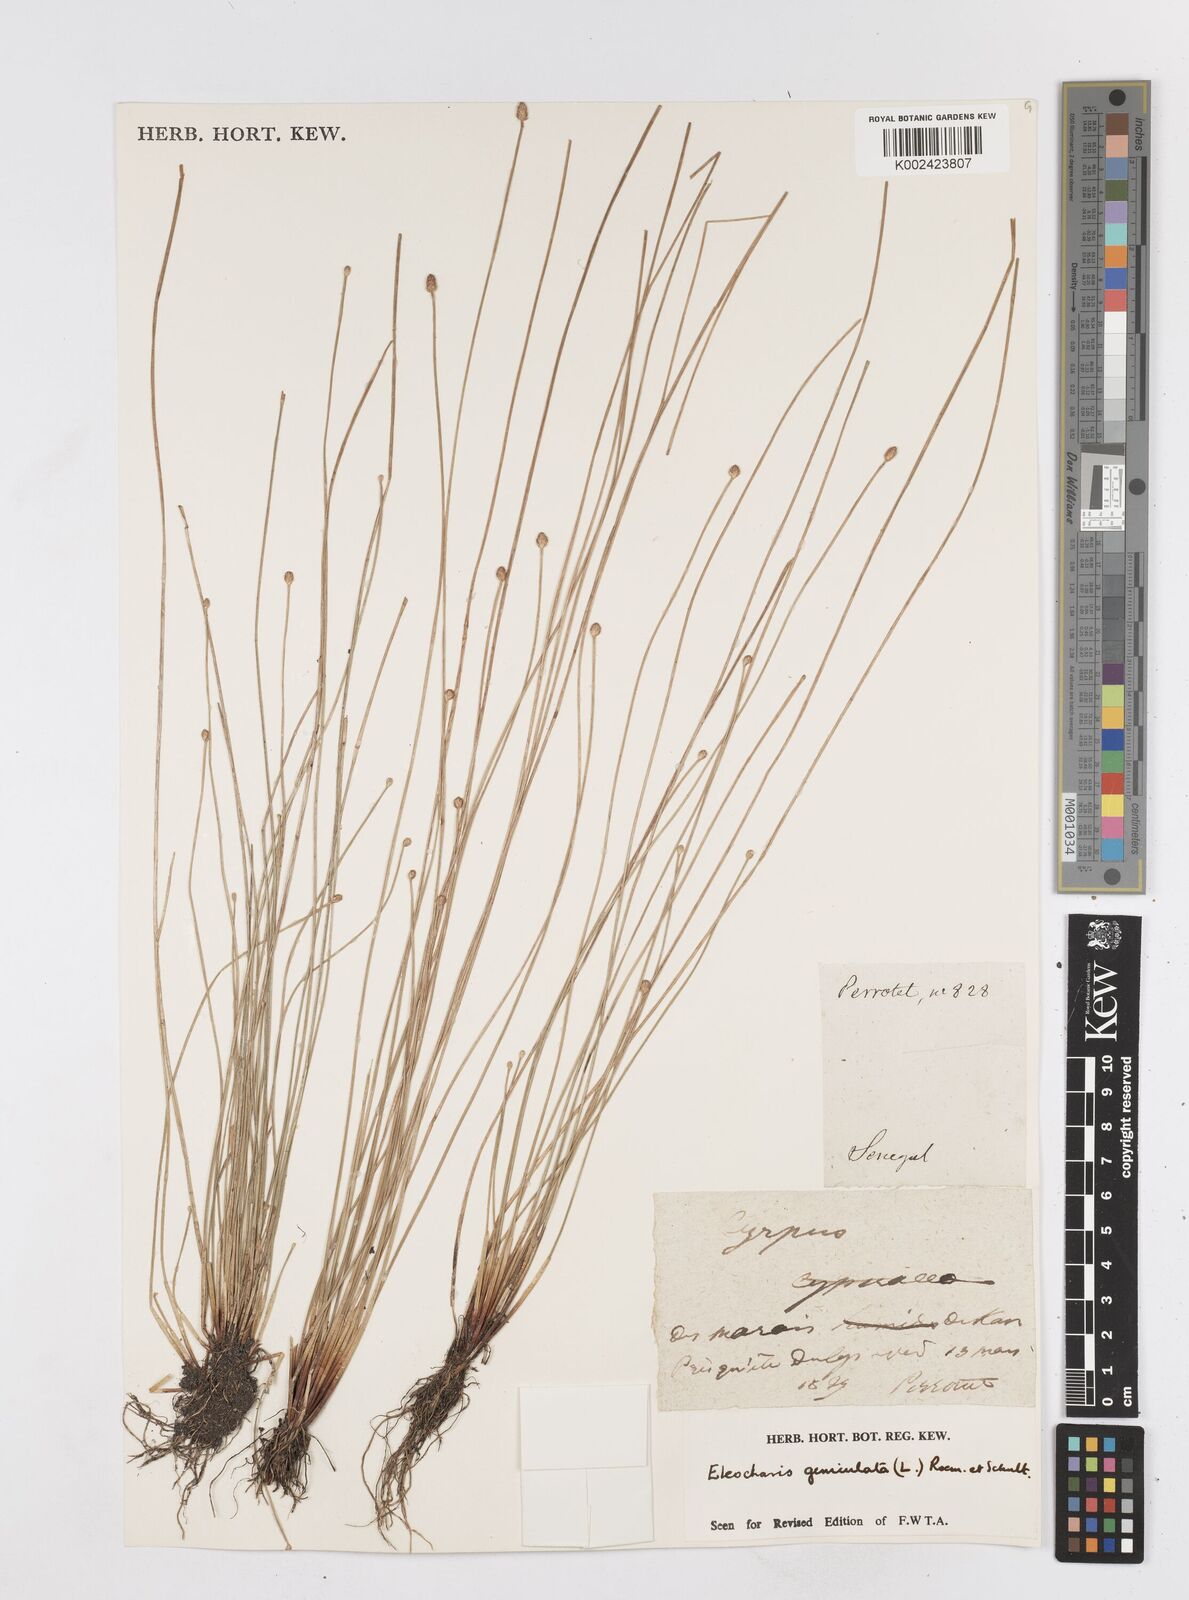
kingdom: Plantae
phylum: Tracheophyta
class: Liliopsida
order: Poales
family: Cyperaceae
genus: Eleocharis
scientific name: Eleocharis geniculata
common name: Canada spikesedge
